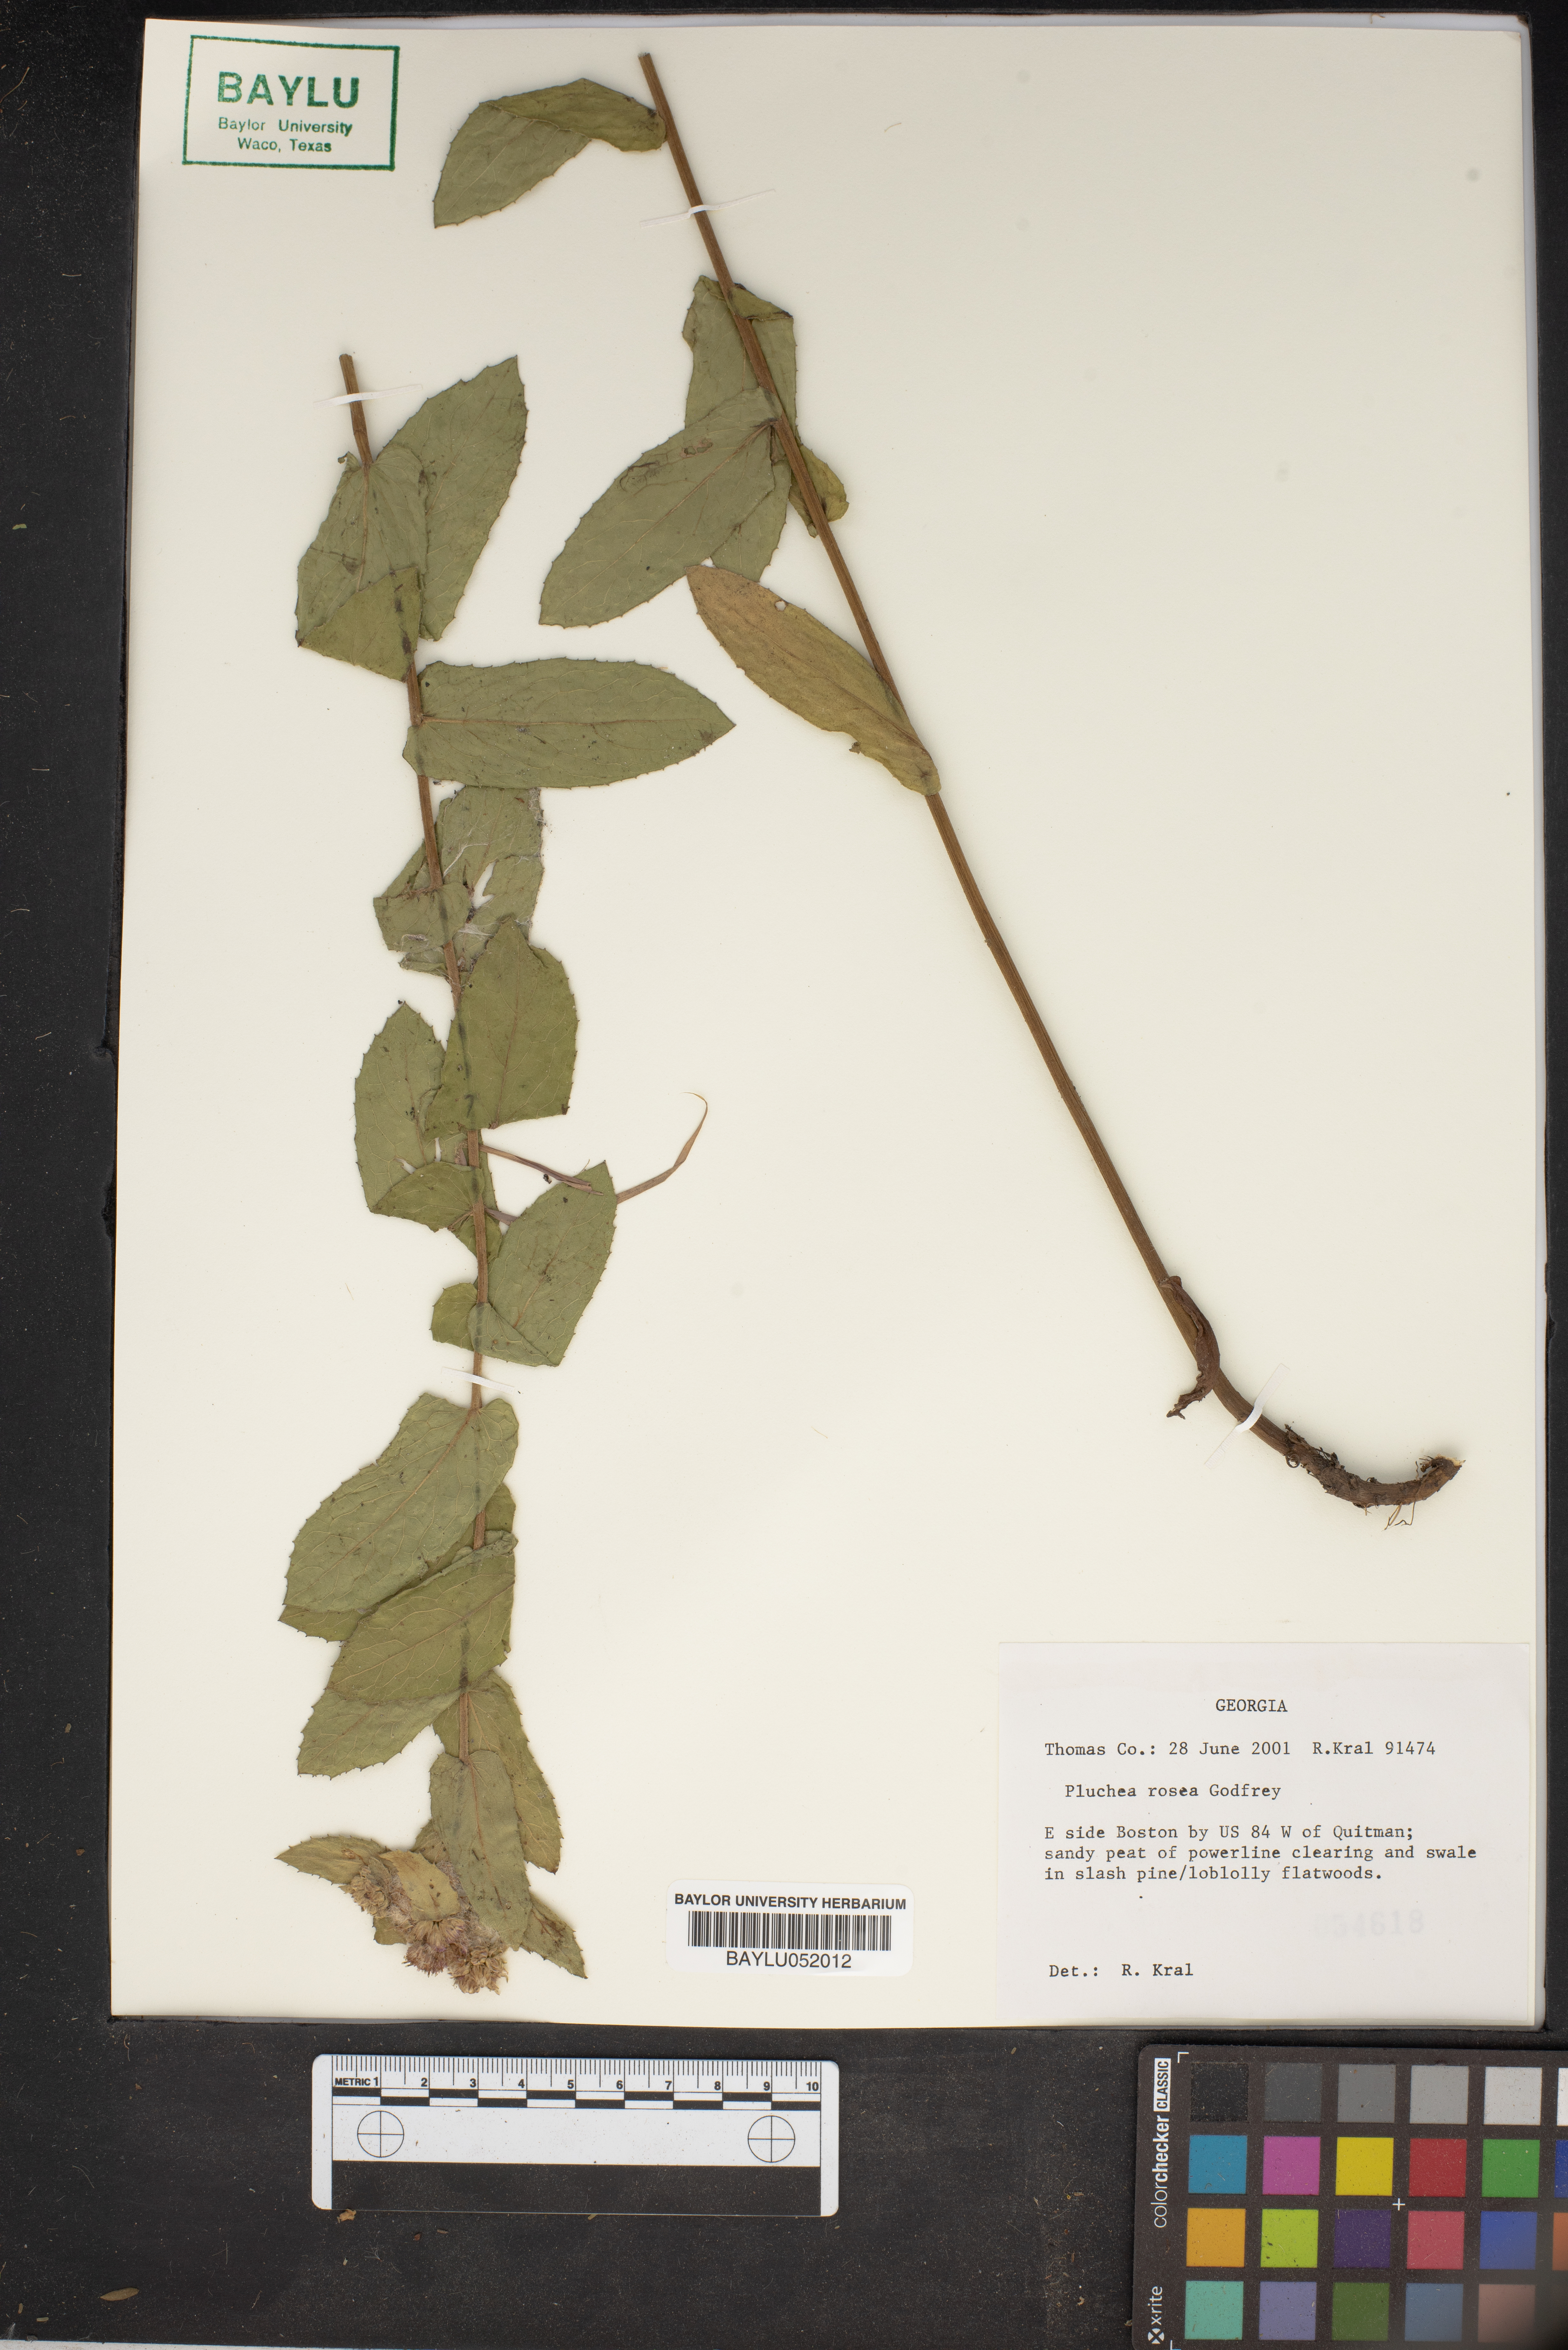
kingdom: Plantae
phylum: Tracheophyta
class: Magnoliopsida
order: Asterales
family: Asteraceae
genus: Pluchea
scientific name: Pluchea baccharis
